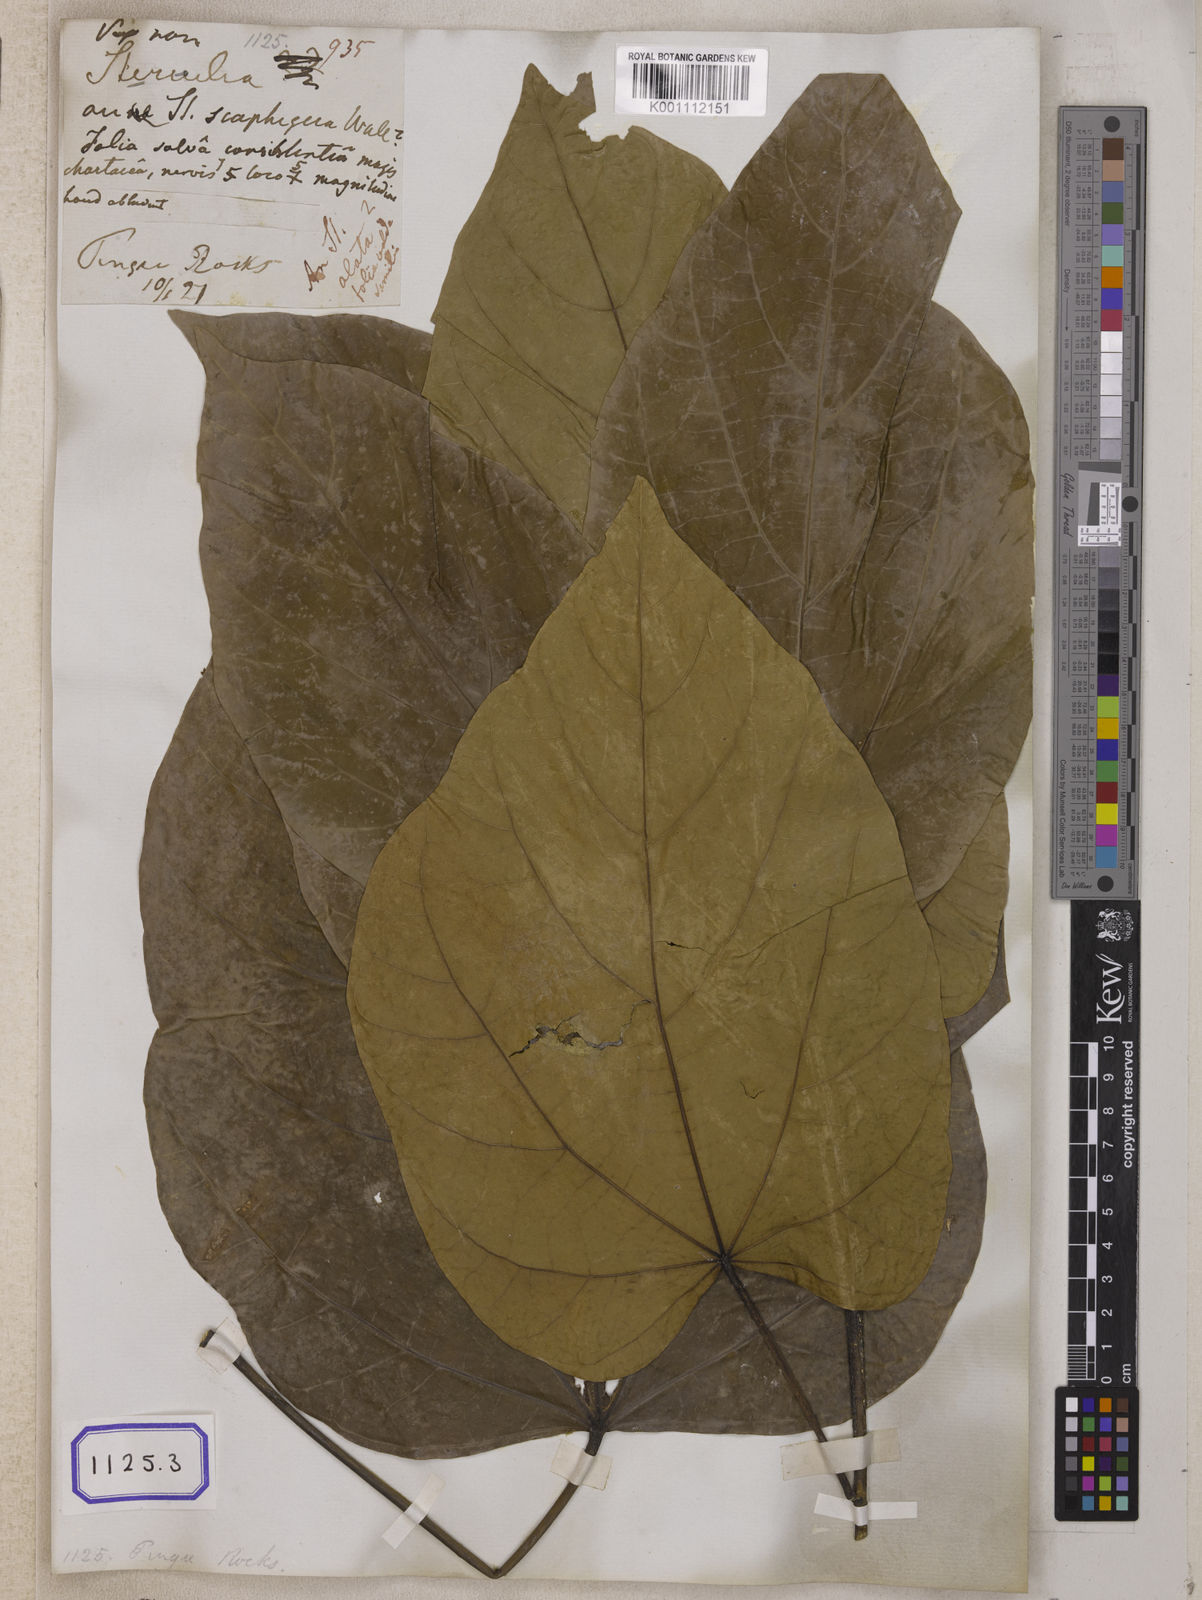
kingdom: Plantae
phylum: Tracheophyta
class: Magnoliopsida
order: Malvales
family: Malvaceae
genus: Pterygota
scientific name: Pterygota alata
